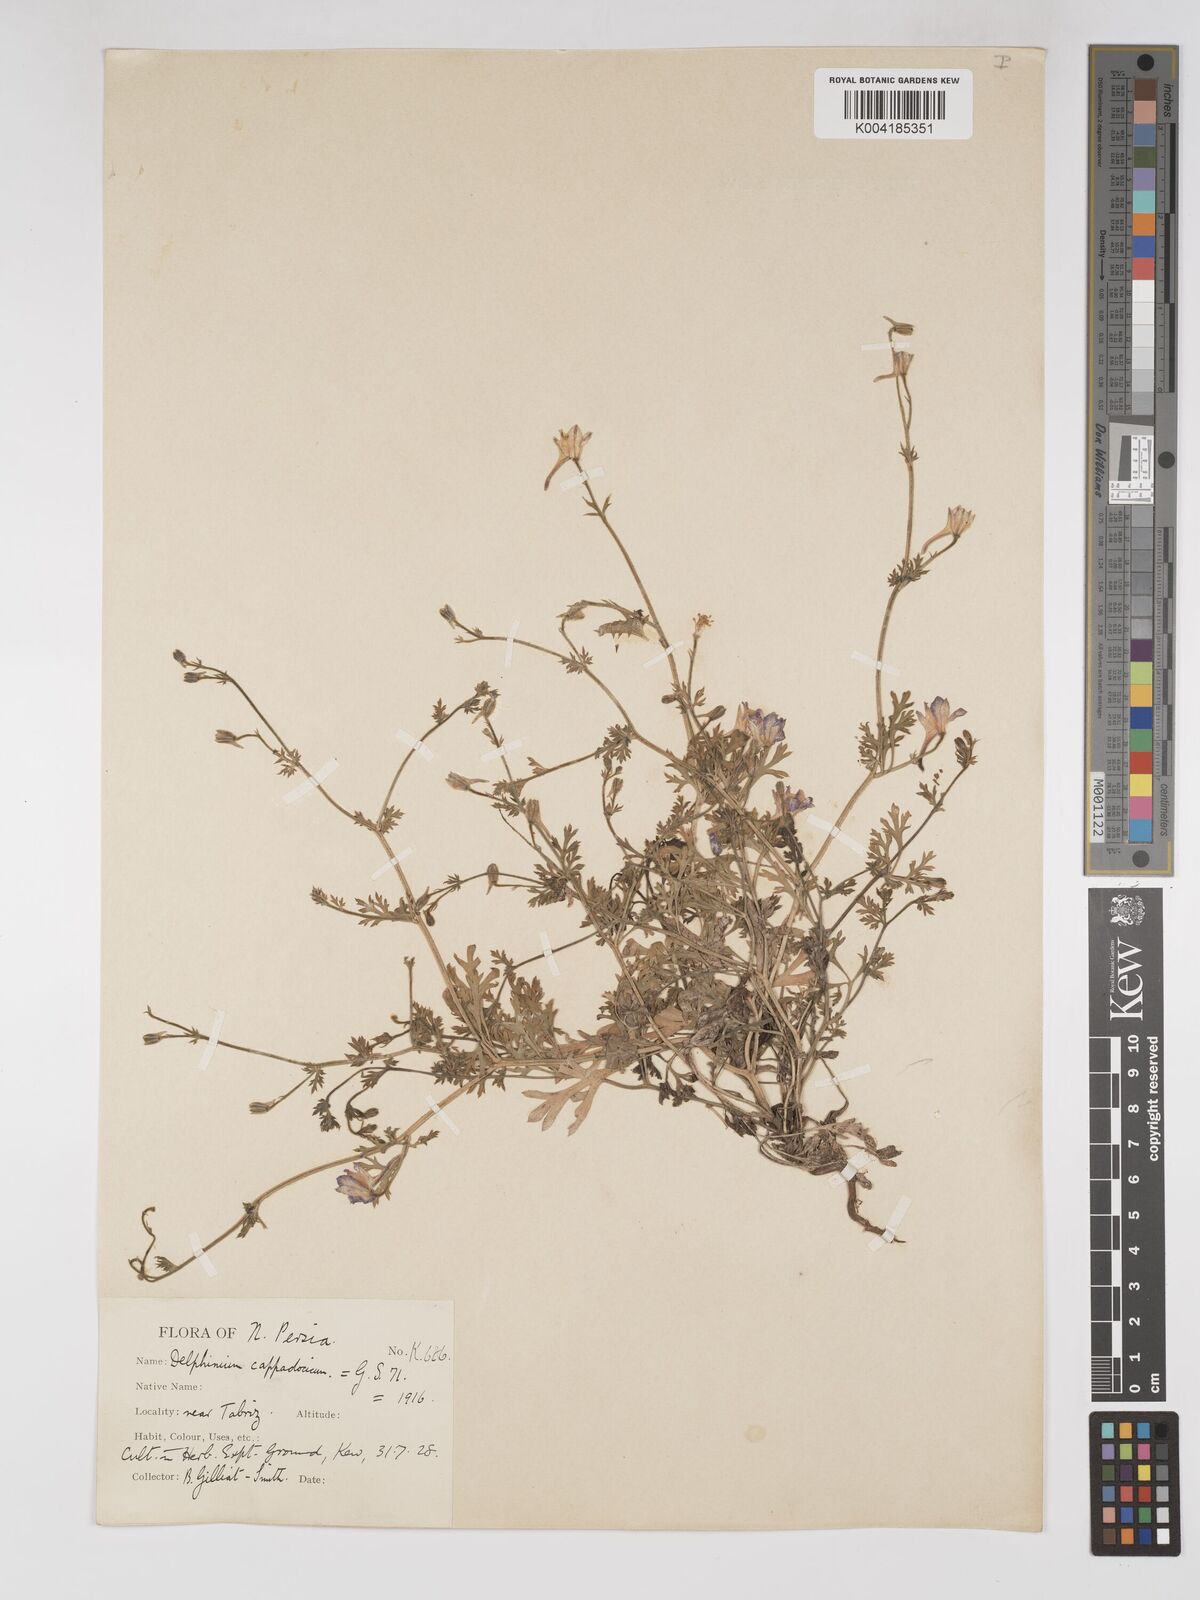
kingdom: Plantae
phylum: Tracheophyta
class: Magnoliopsida
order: Ranunculales
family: Ranunculaceae
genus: Delphinium
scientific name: Delphinium oliverianum
